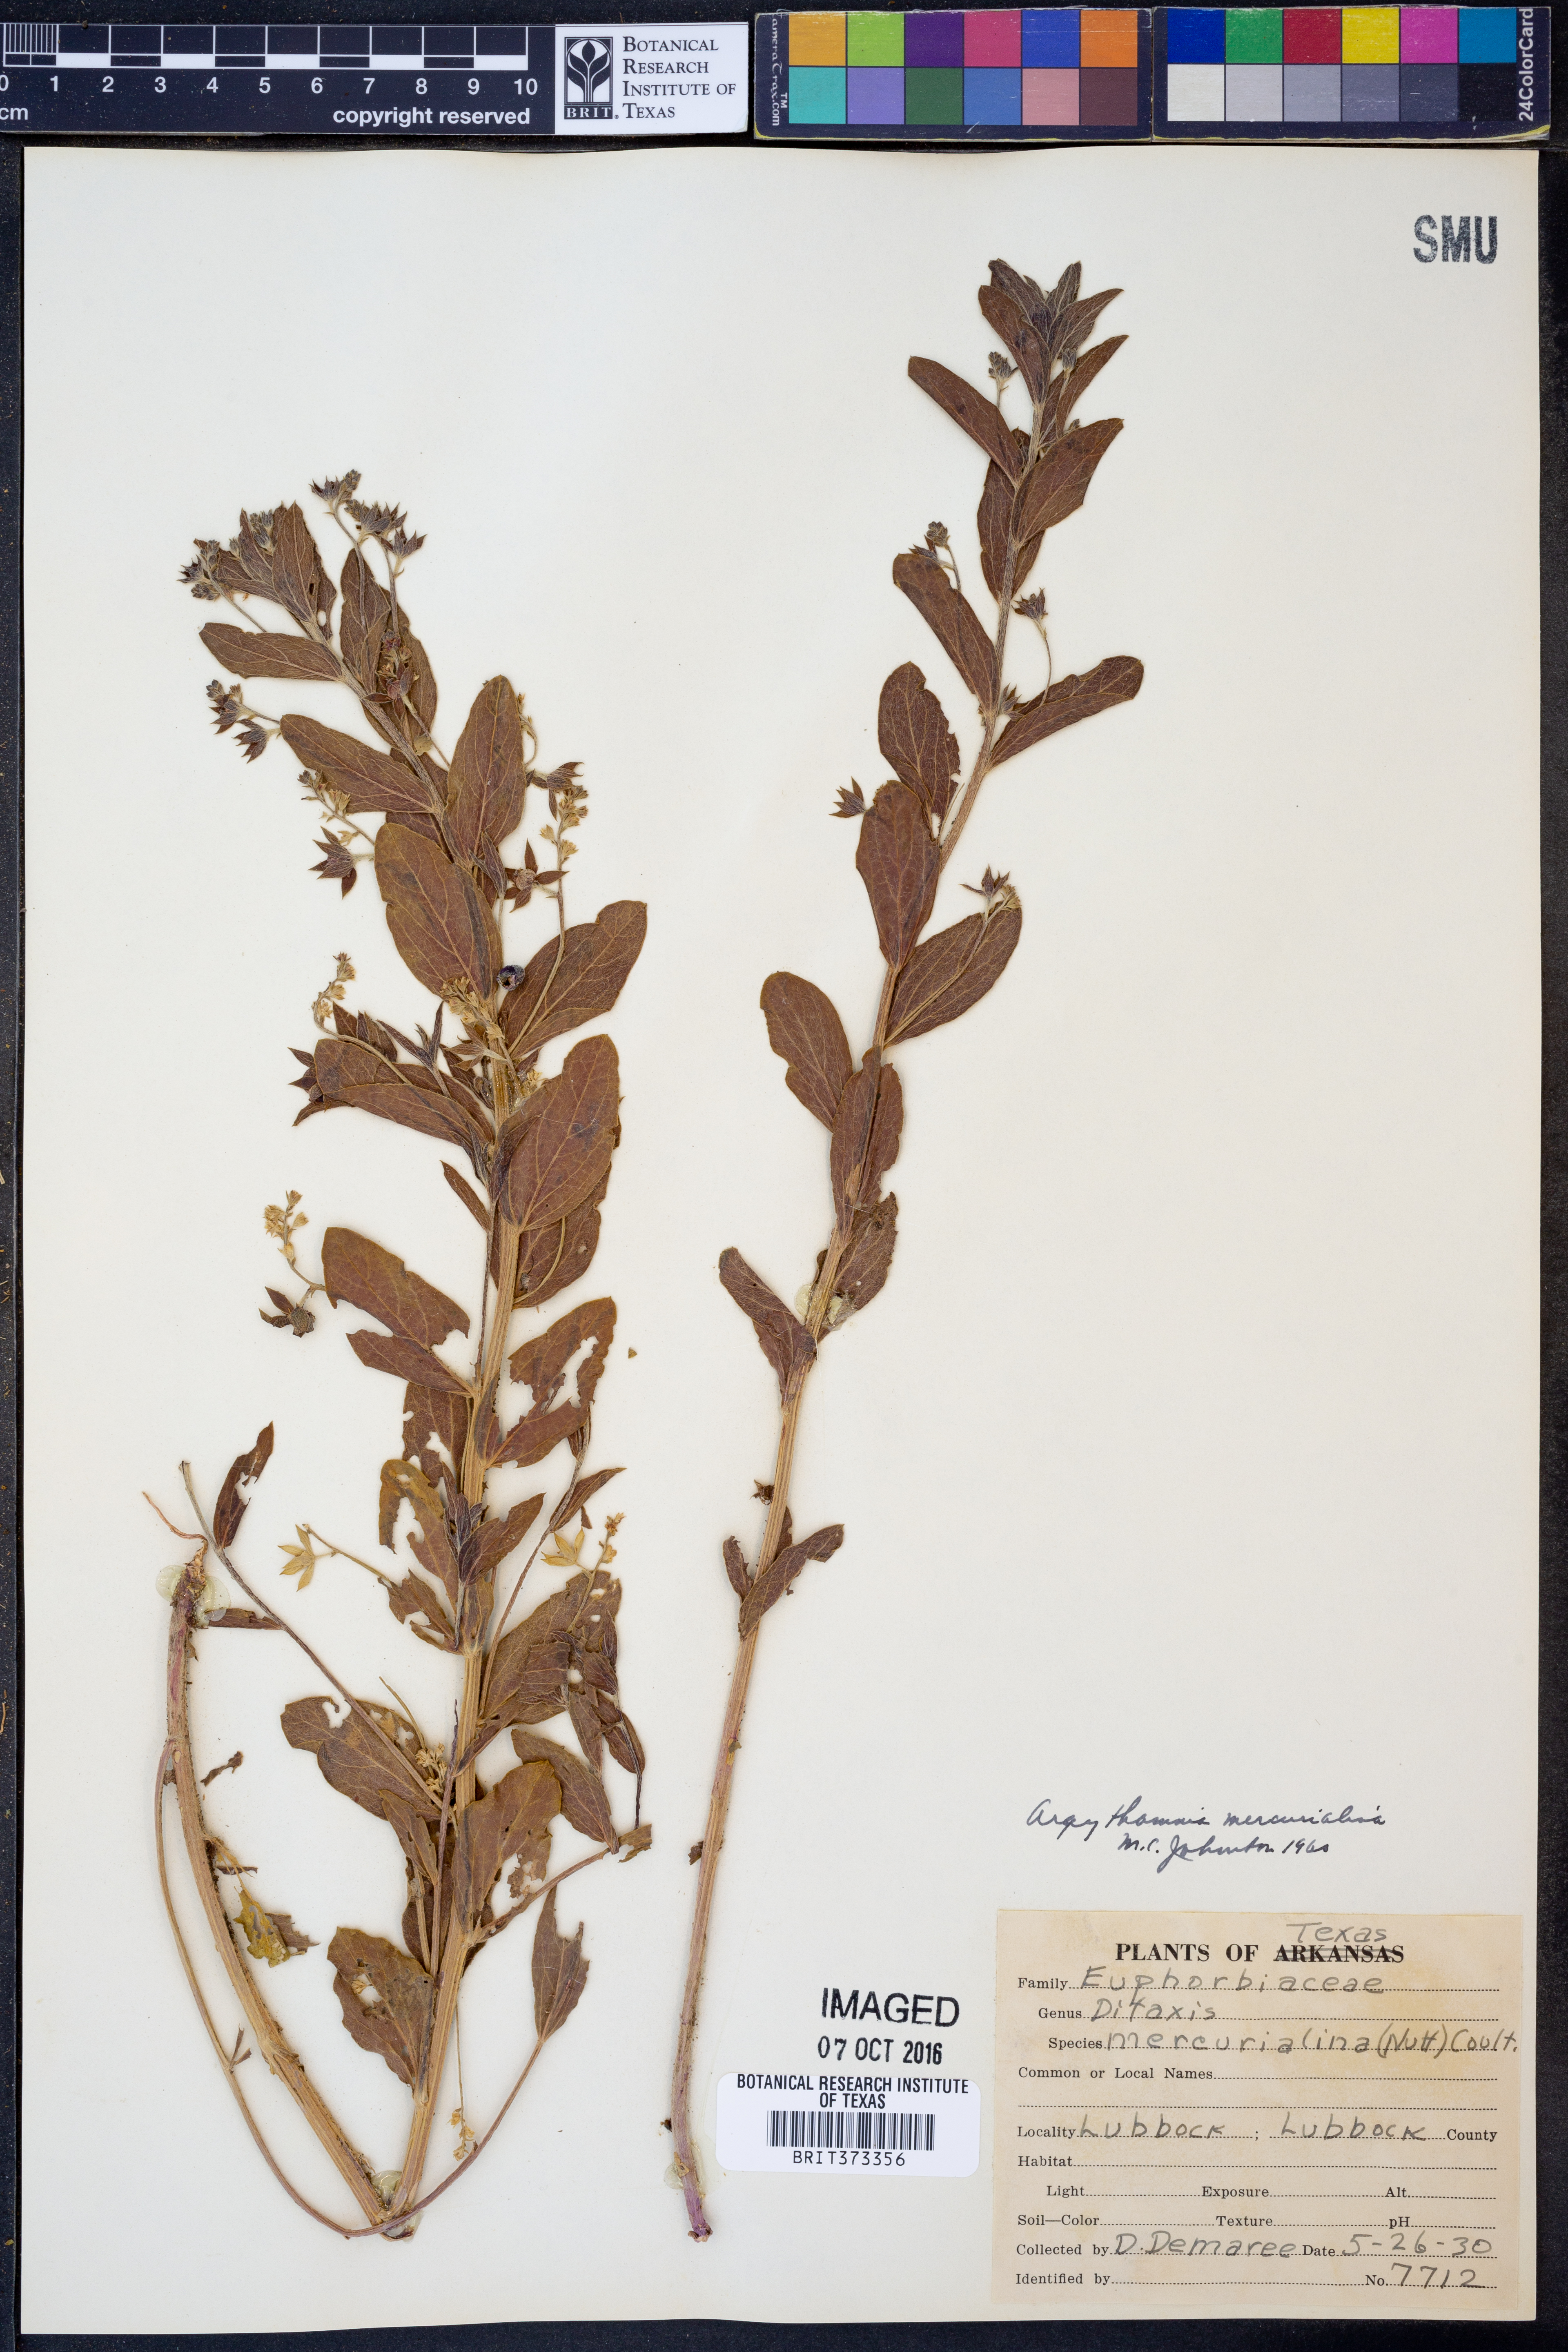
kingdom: Plantae
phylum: Tracheophyta
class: Magnoliopsida
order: Malpighiales
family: Euphorbiaceae
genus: Ditaxis
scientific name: Ditaxis mercurialina
